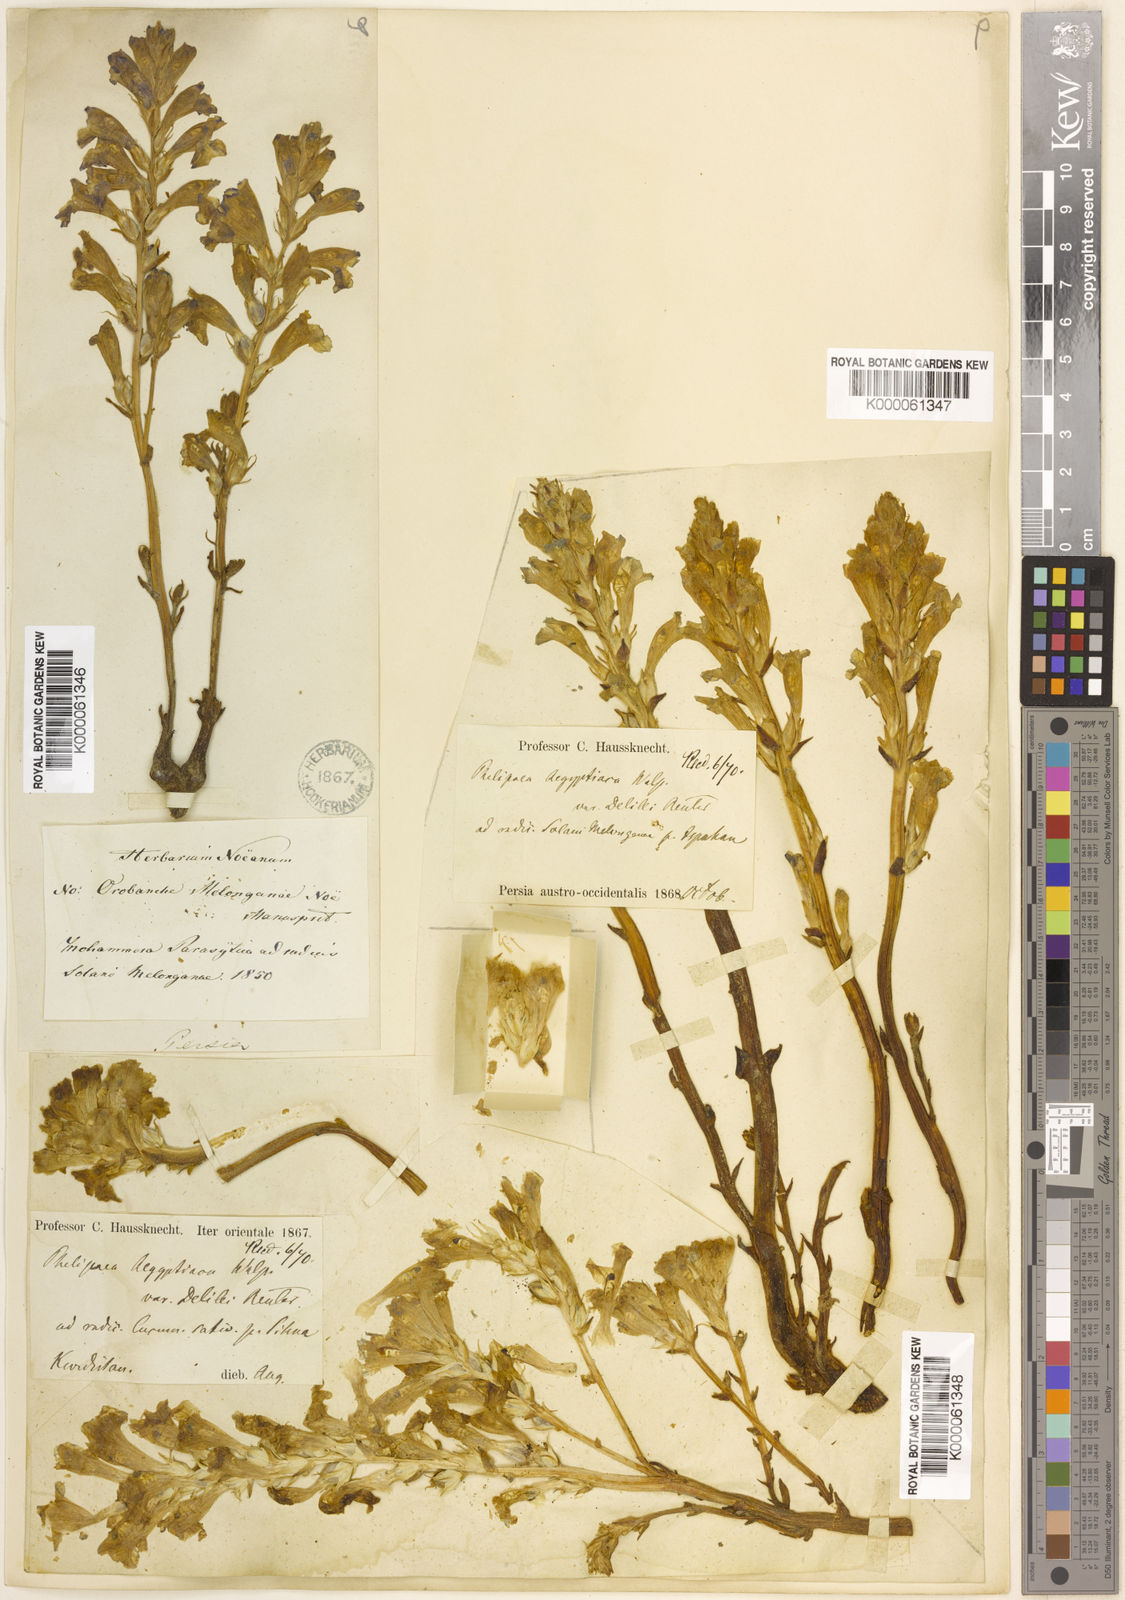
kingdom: Plantae
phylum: Tracheophyta
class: Magnoliopsida
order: Lamiales
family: Orobanchaceae
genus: Phelipanche
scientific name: Phelipanche aegyptiaca
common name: Egyptian broomrape
